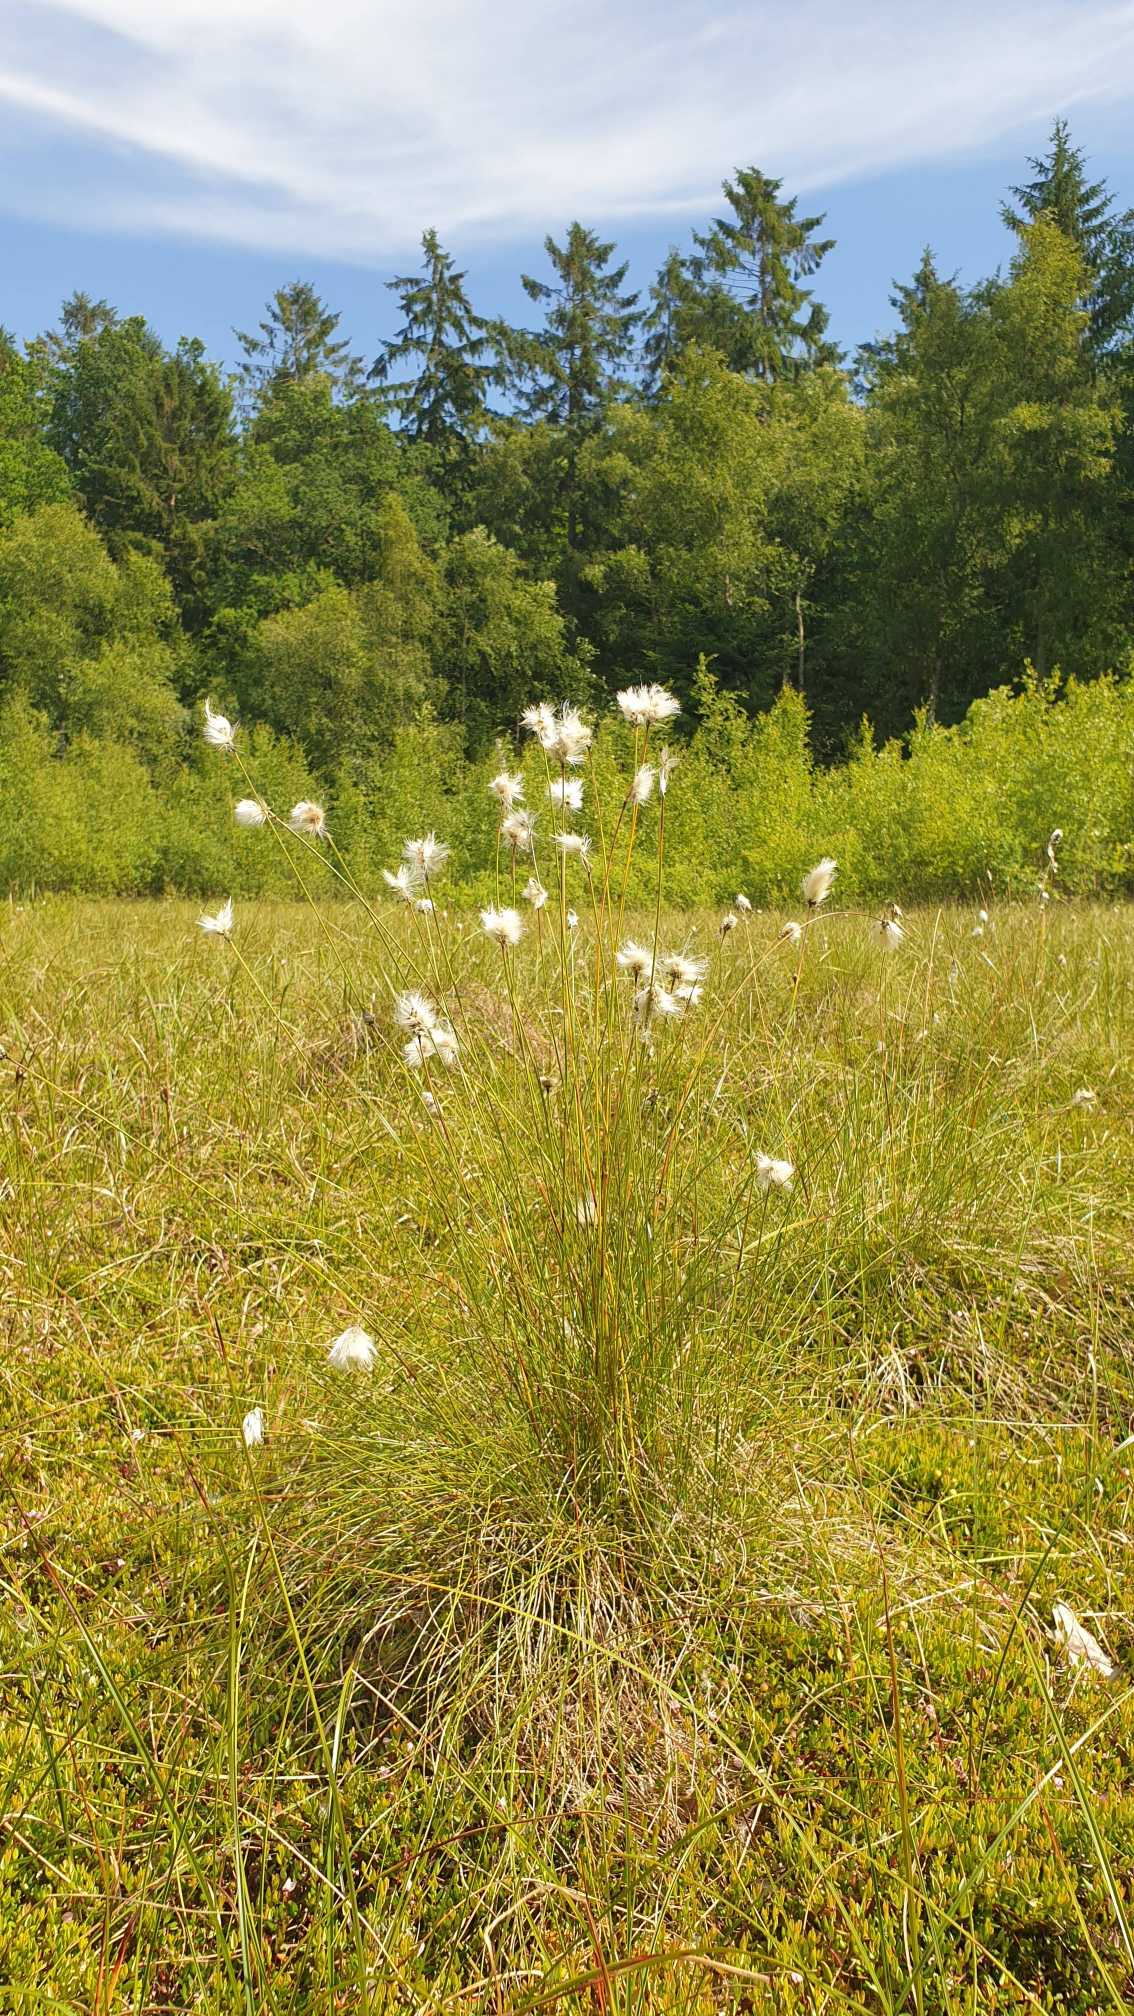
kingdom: Plantae
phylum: Tracheophyta
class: Liliopsida
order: Poales
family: Cyperaceae
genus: Eriophorum
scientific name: Eriophorum vaginatum
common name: Tue-kæruld
